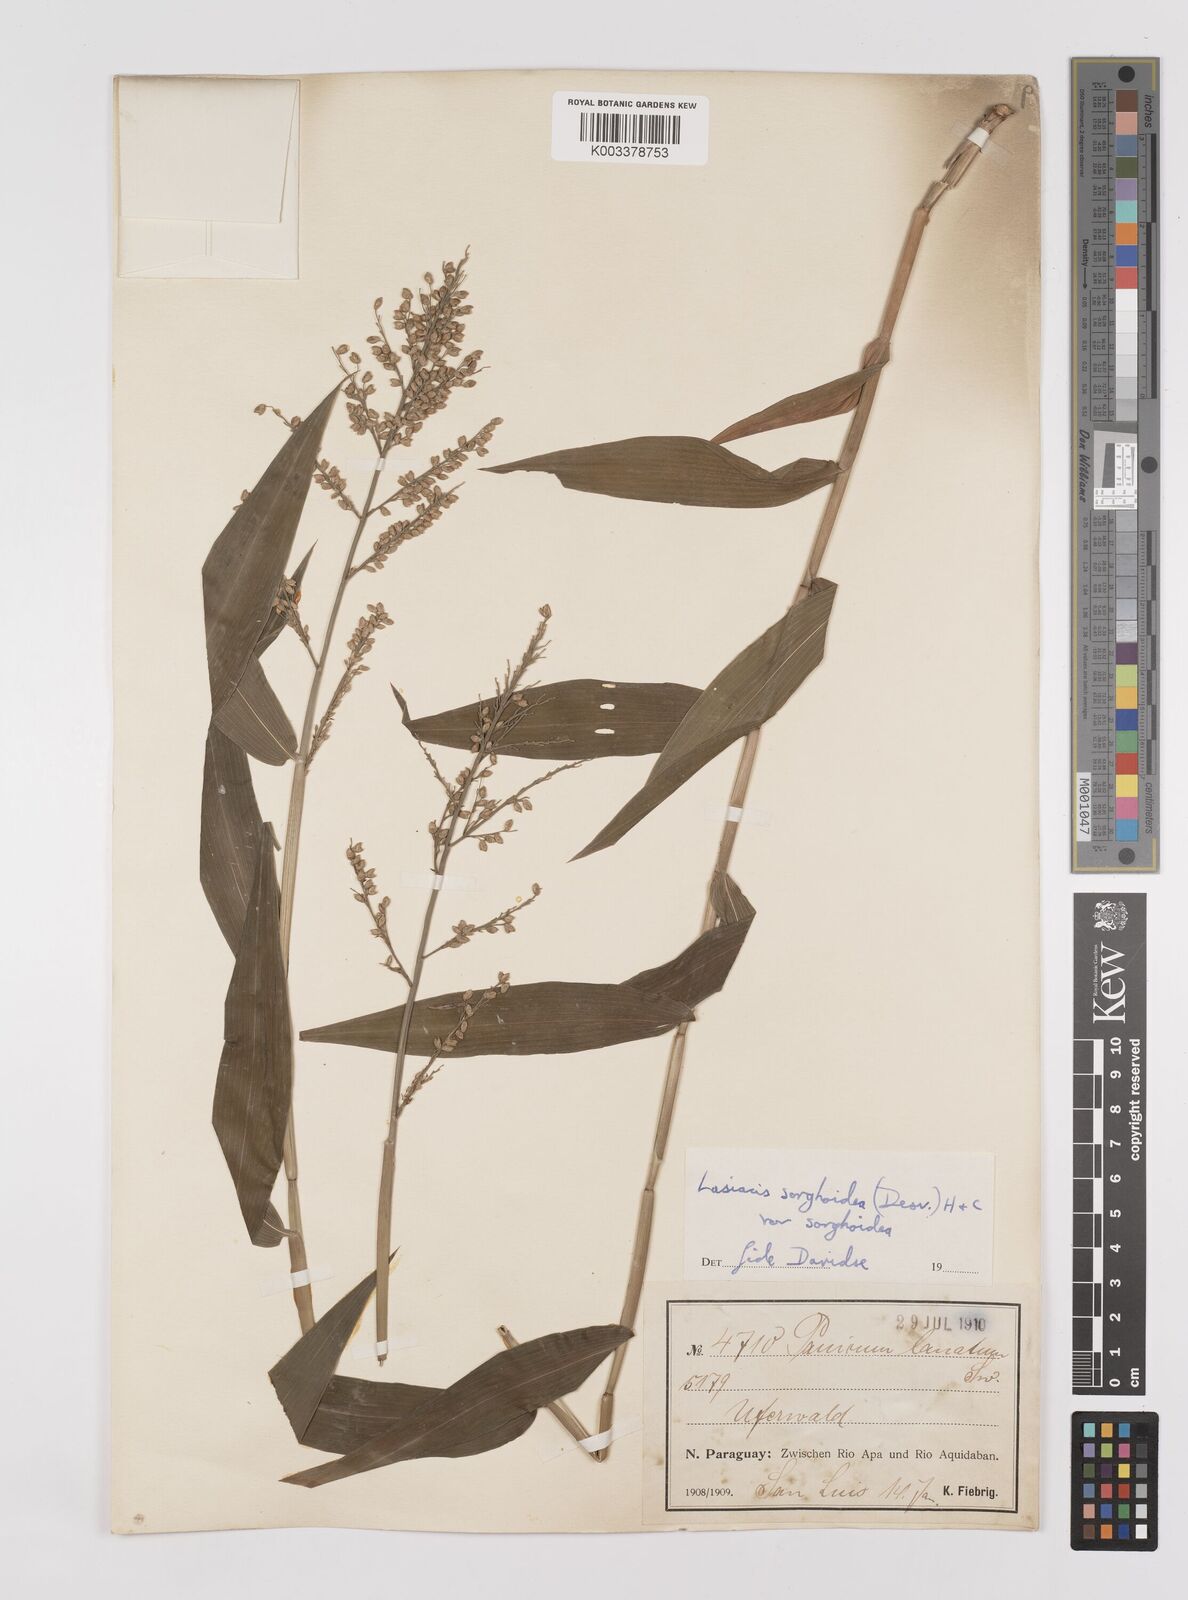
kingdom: Plantae
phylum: Tracheophyta
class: Liliopsida
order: Poales
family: Poaceae
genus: Lasiacis
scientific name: Lasiacis maculata
